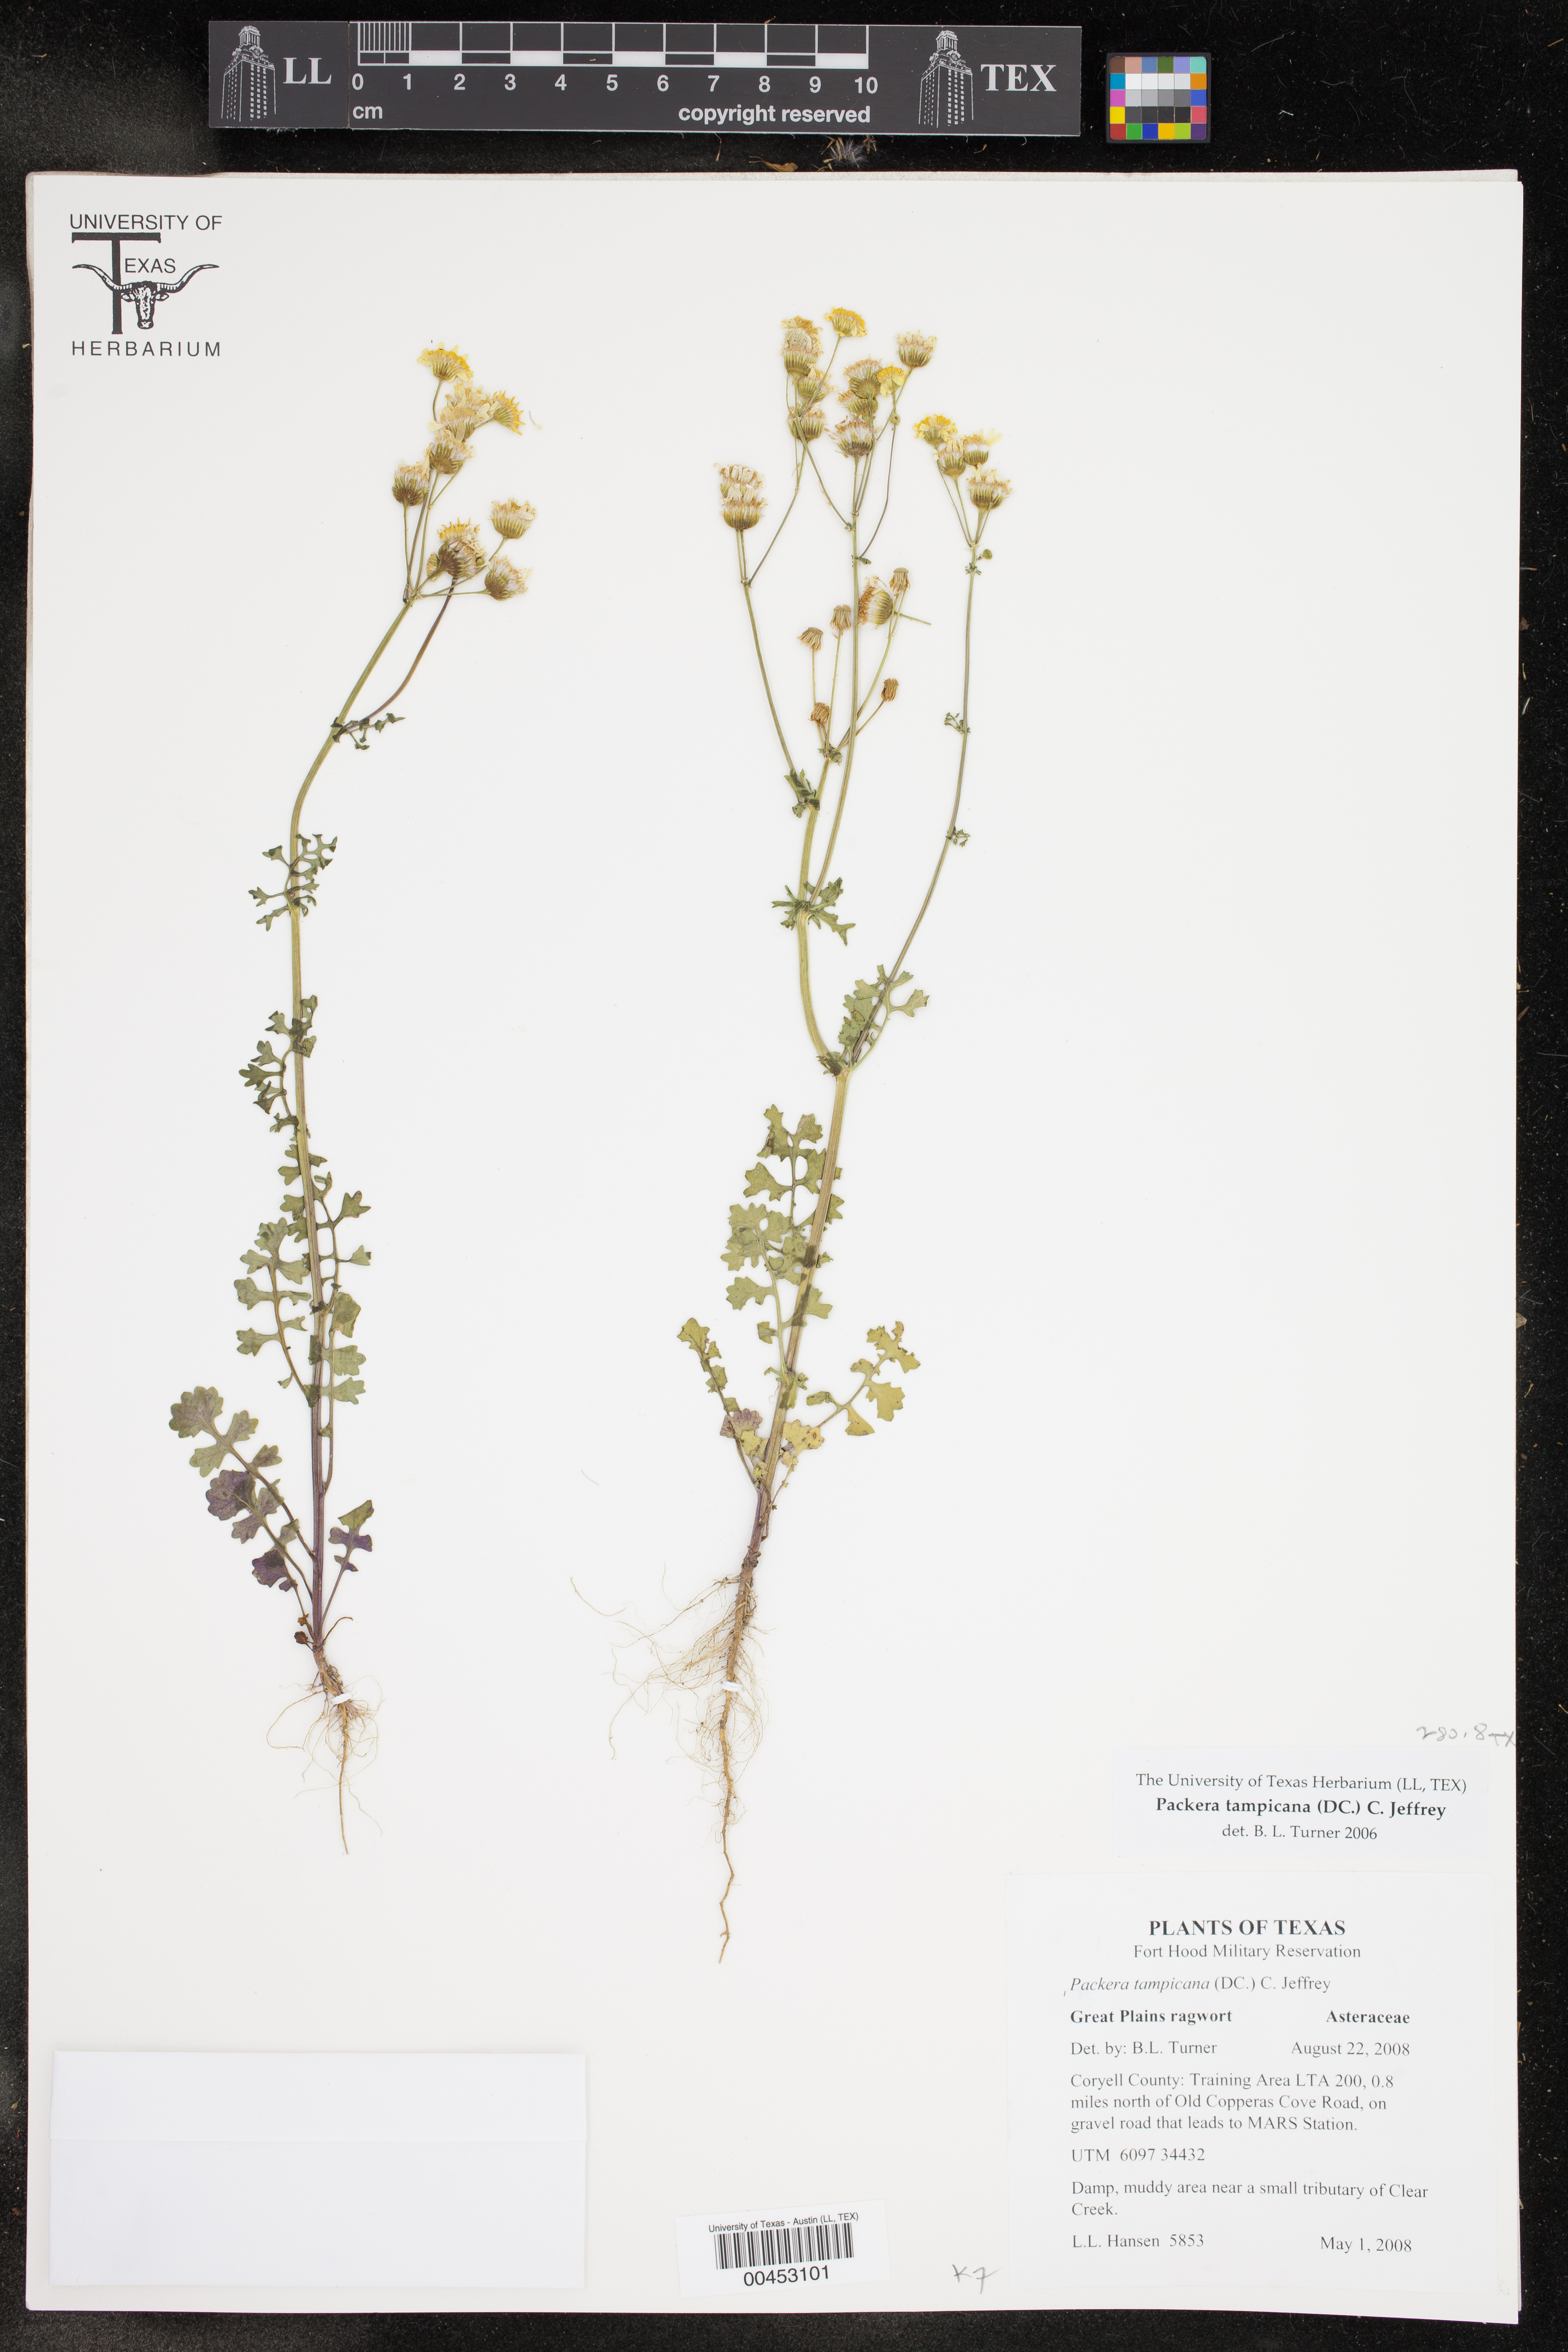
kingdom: Plantae
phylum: Tracheophyta
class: Magnoliopsida
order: Asterales
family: Asteraceae
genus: Packera
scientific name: Packera tampicana
